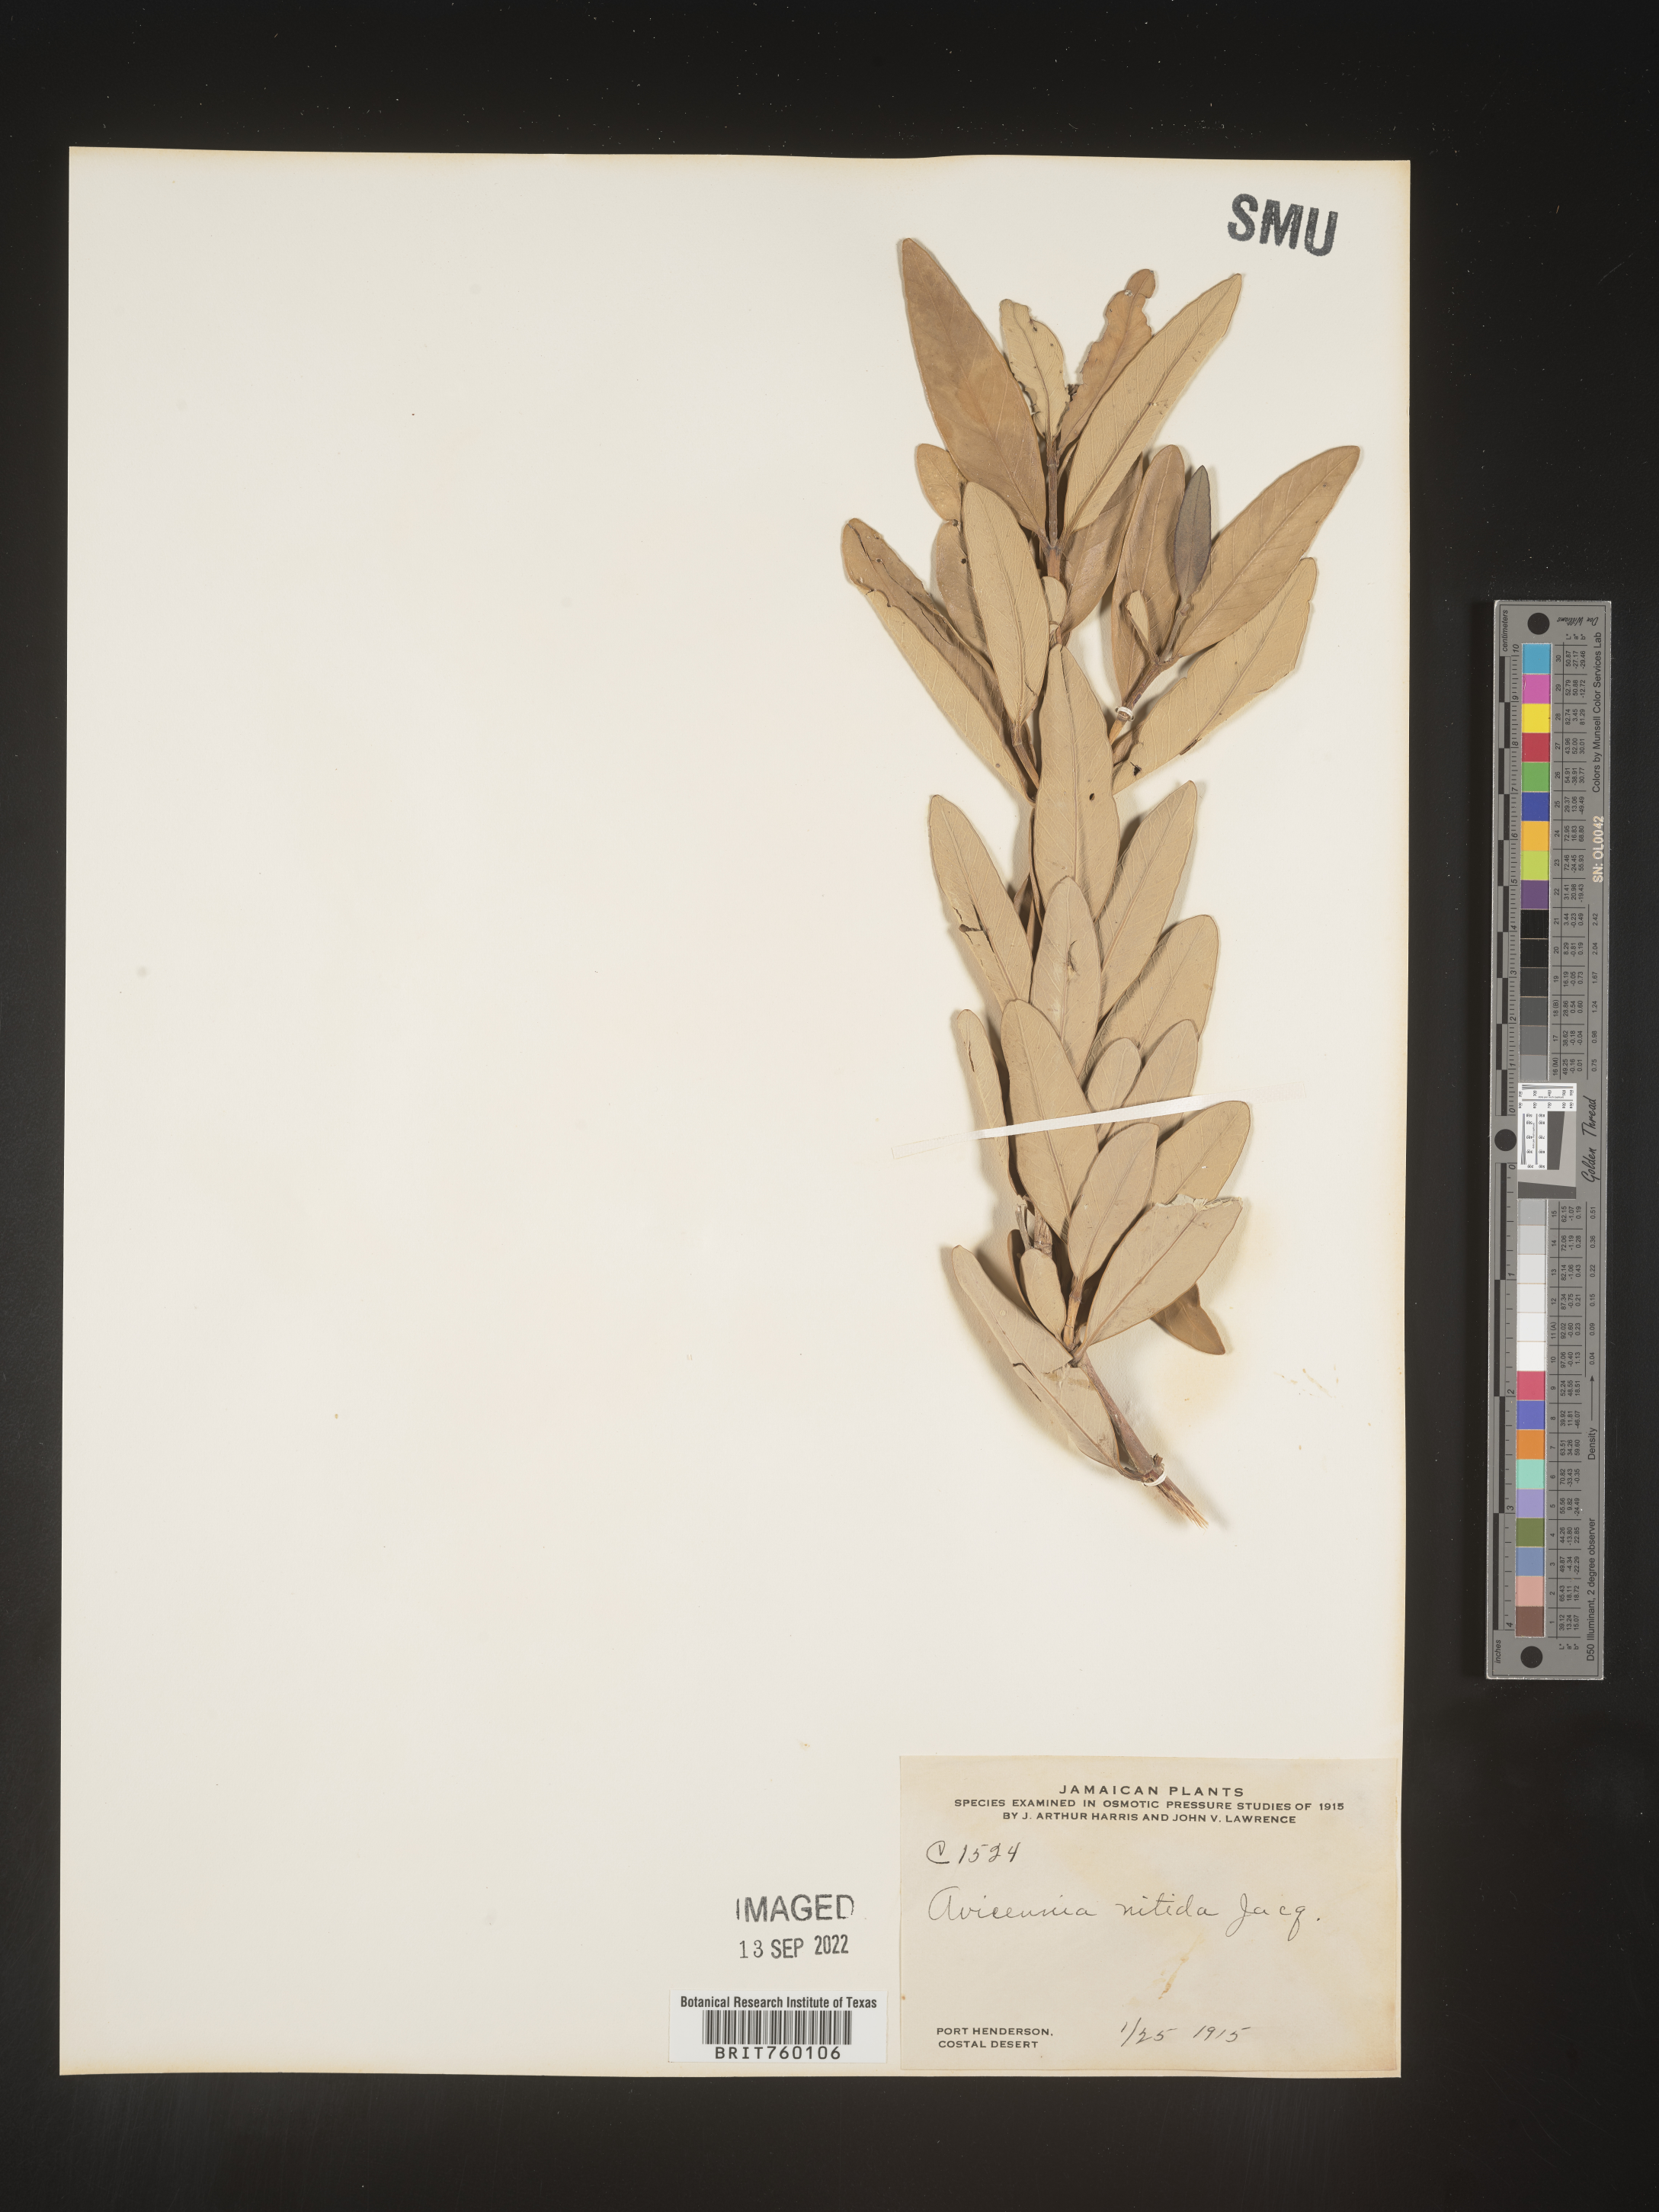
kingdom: Plantae
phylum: Tracheophyta
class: Magnoliopsida
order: Lamiales
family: Acanthaceae
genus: Avicennia
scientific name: Avicennia
